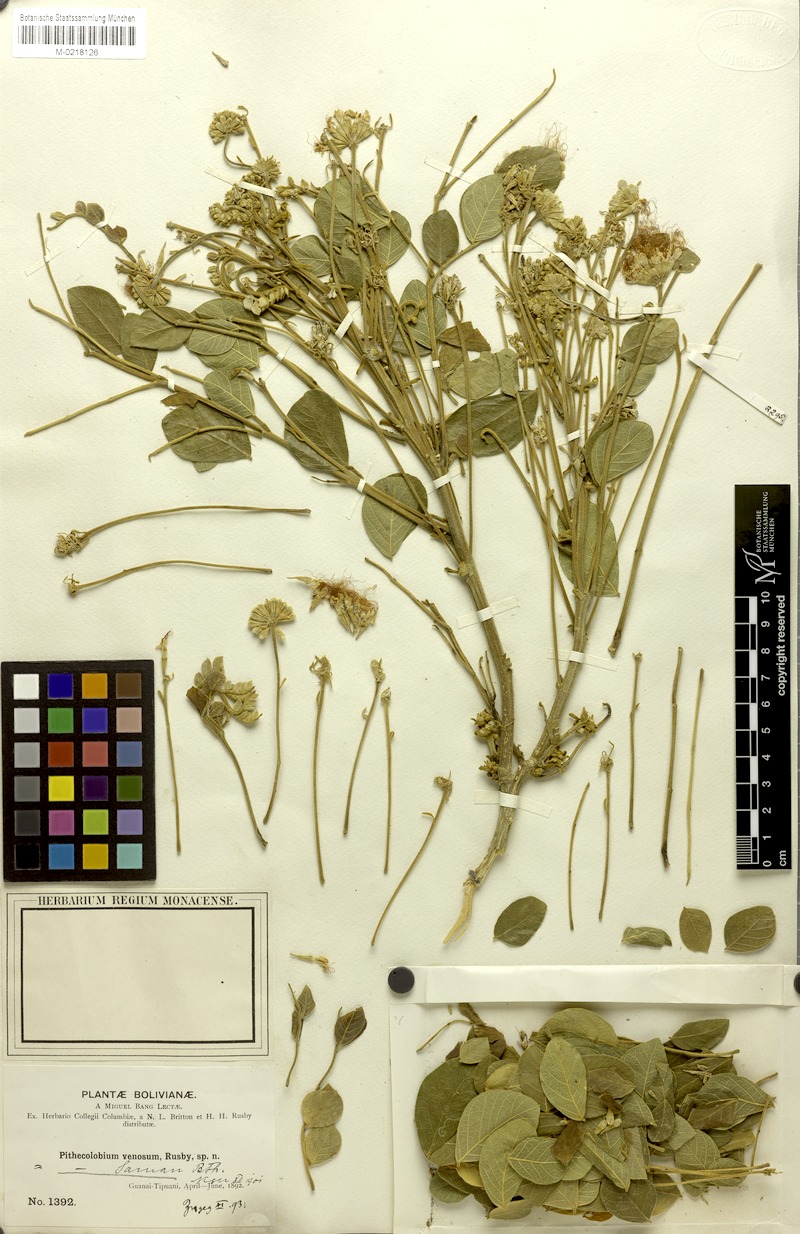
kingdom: Plantae
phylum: Tracheophyta
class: Magnoliopsida
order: Fabales
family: Fabaceae
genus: Samanea
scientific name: Samanea tubulosa
